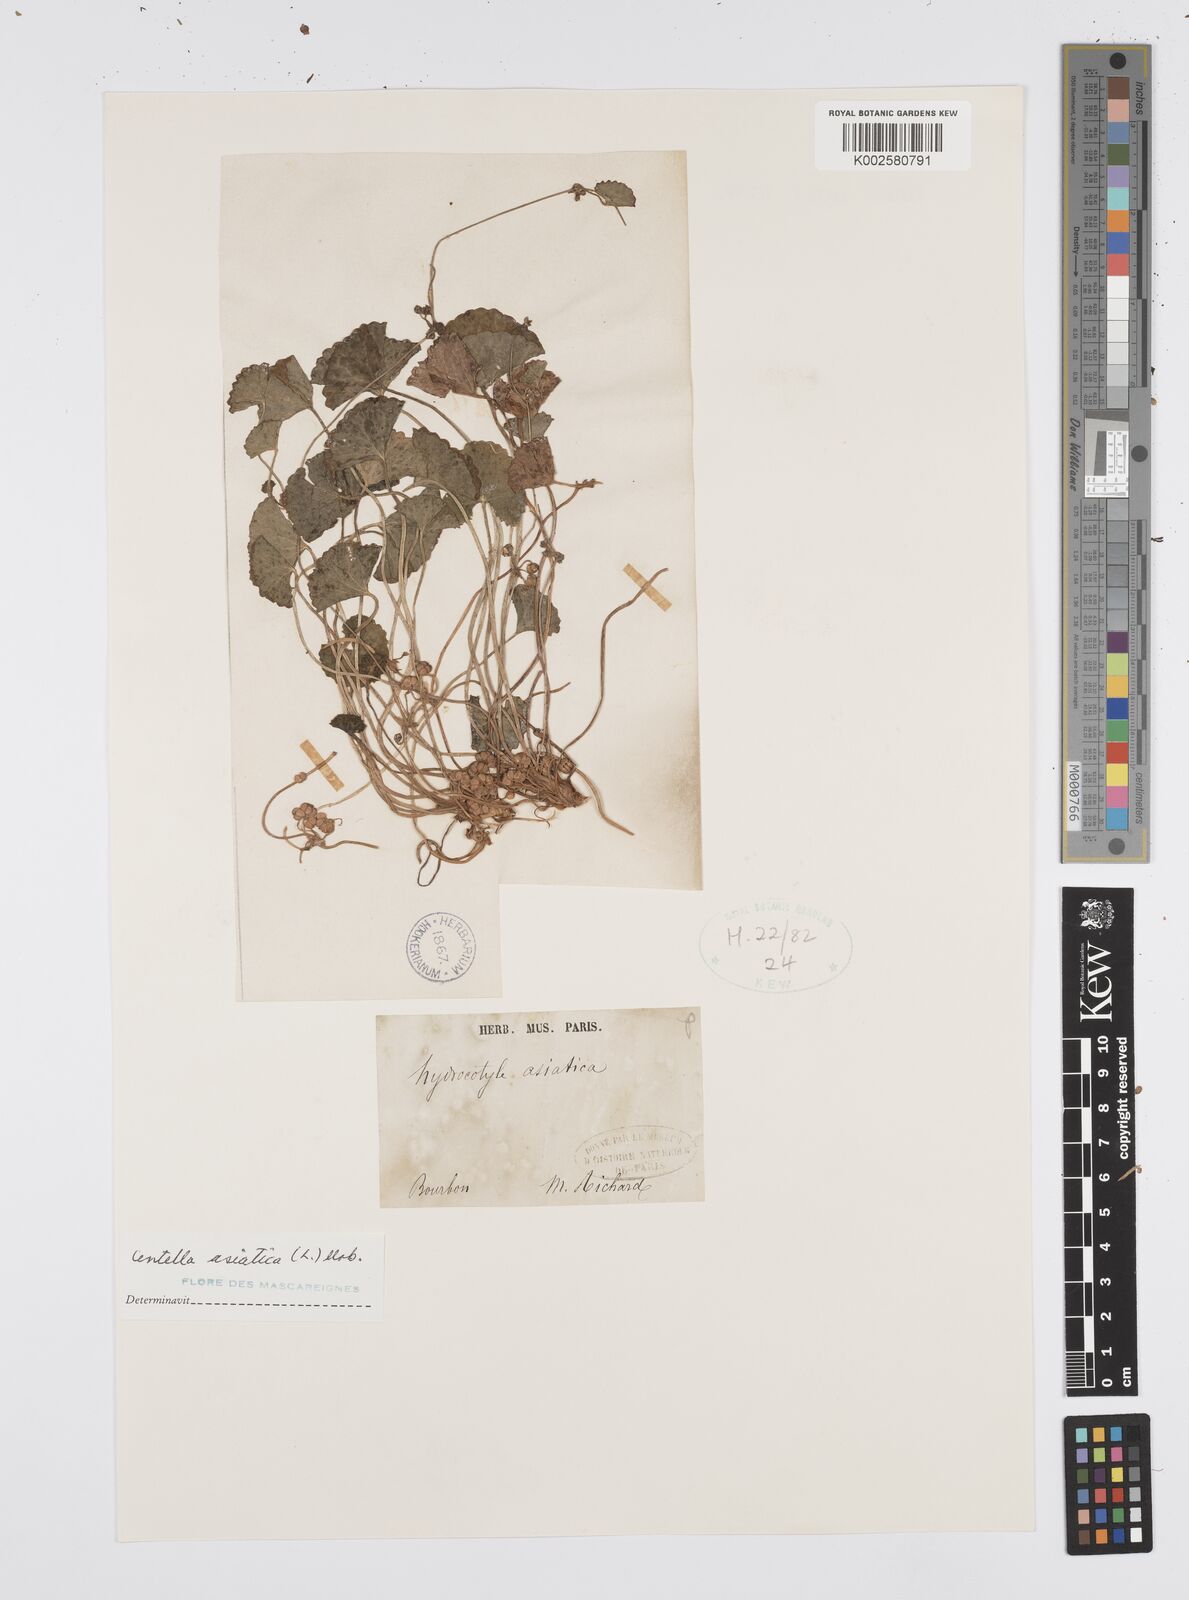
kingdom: Plantae
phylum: Tracheophyta
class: Magnoliopsida
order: Apiales
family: Apiaceae
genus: Centella
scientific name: Centella asiatica
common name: Spadeleaf
